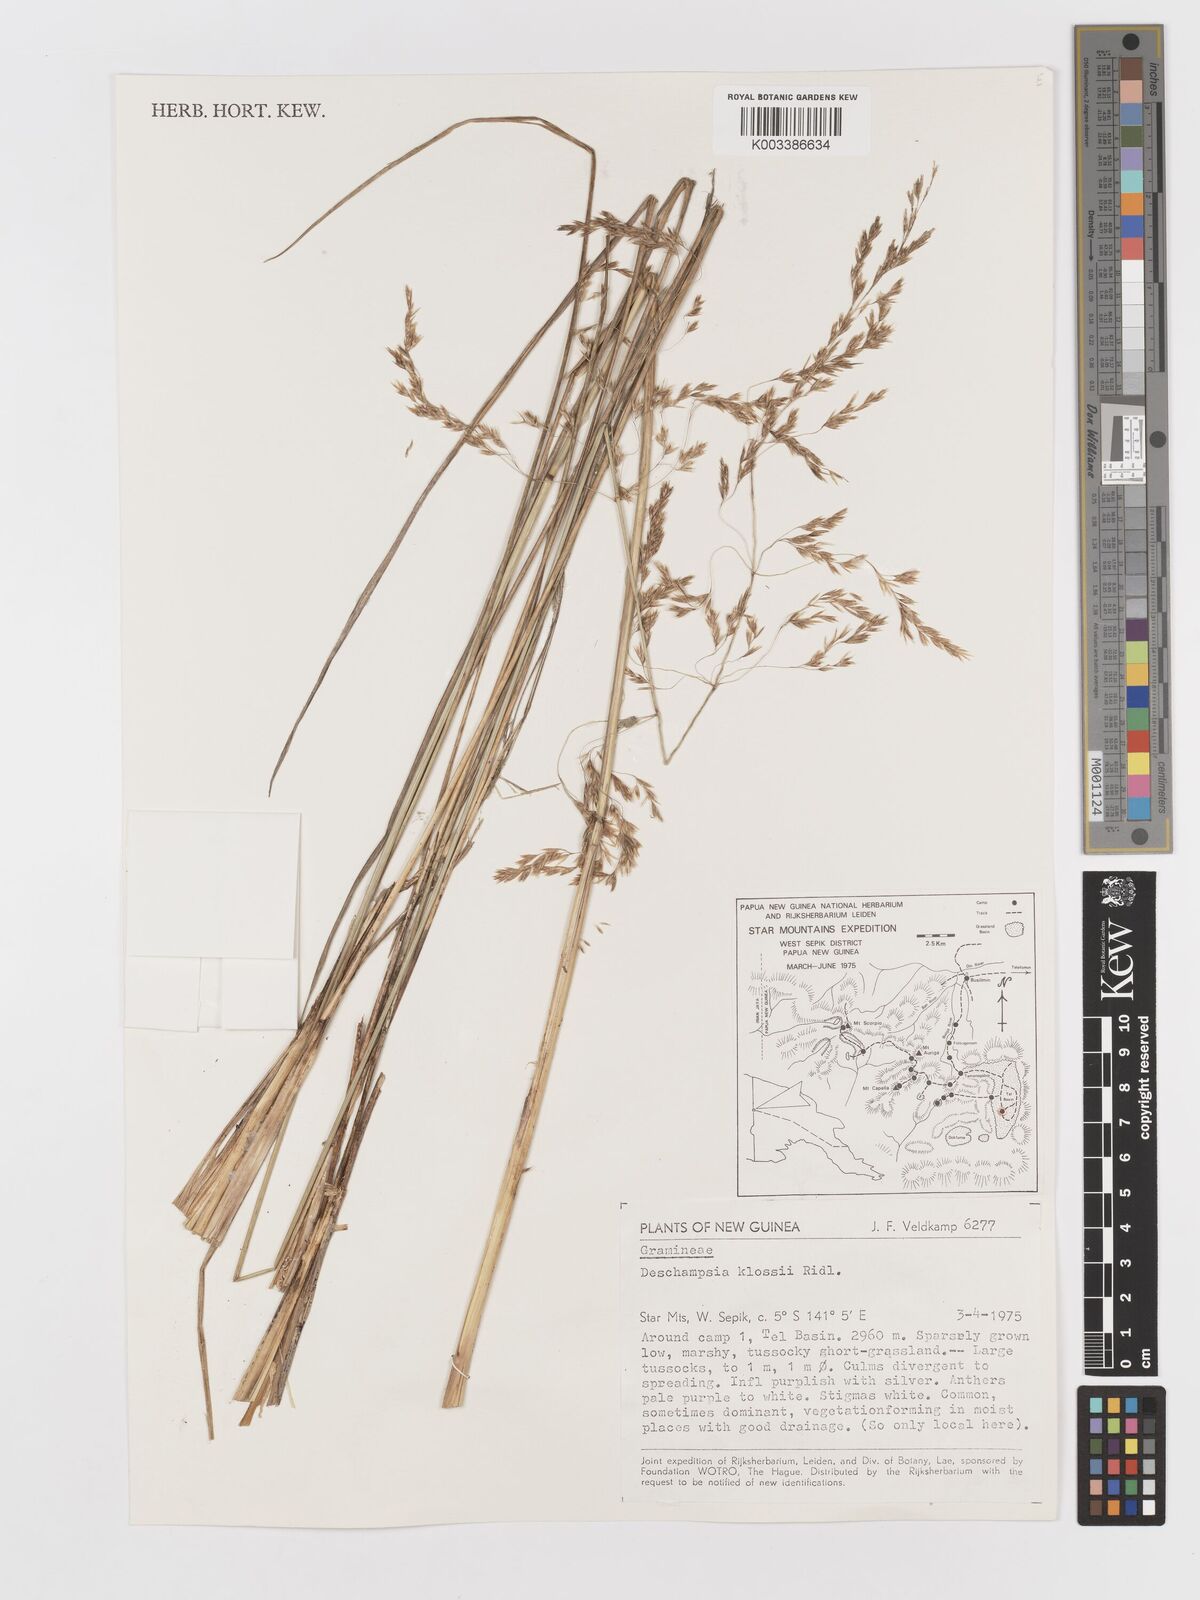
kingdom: Plantae
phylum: Tracheophyta
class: Liliopsida
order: Poales
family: Poaceae
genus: Deschampsia
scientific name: Deschampsia klossii
